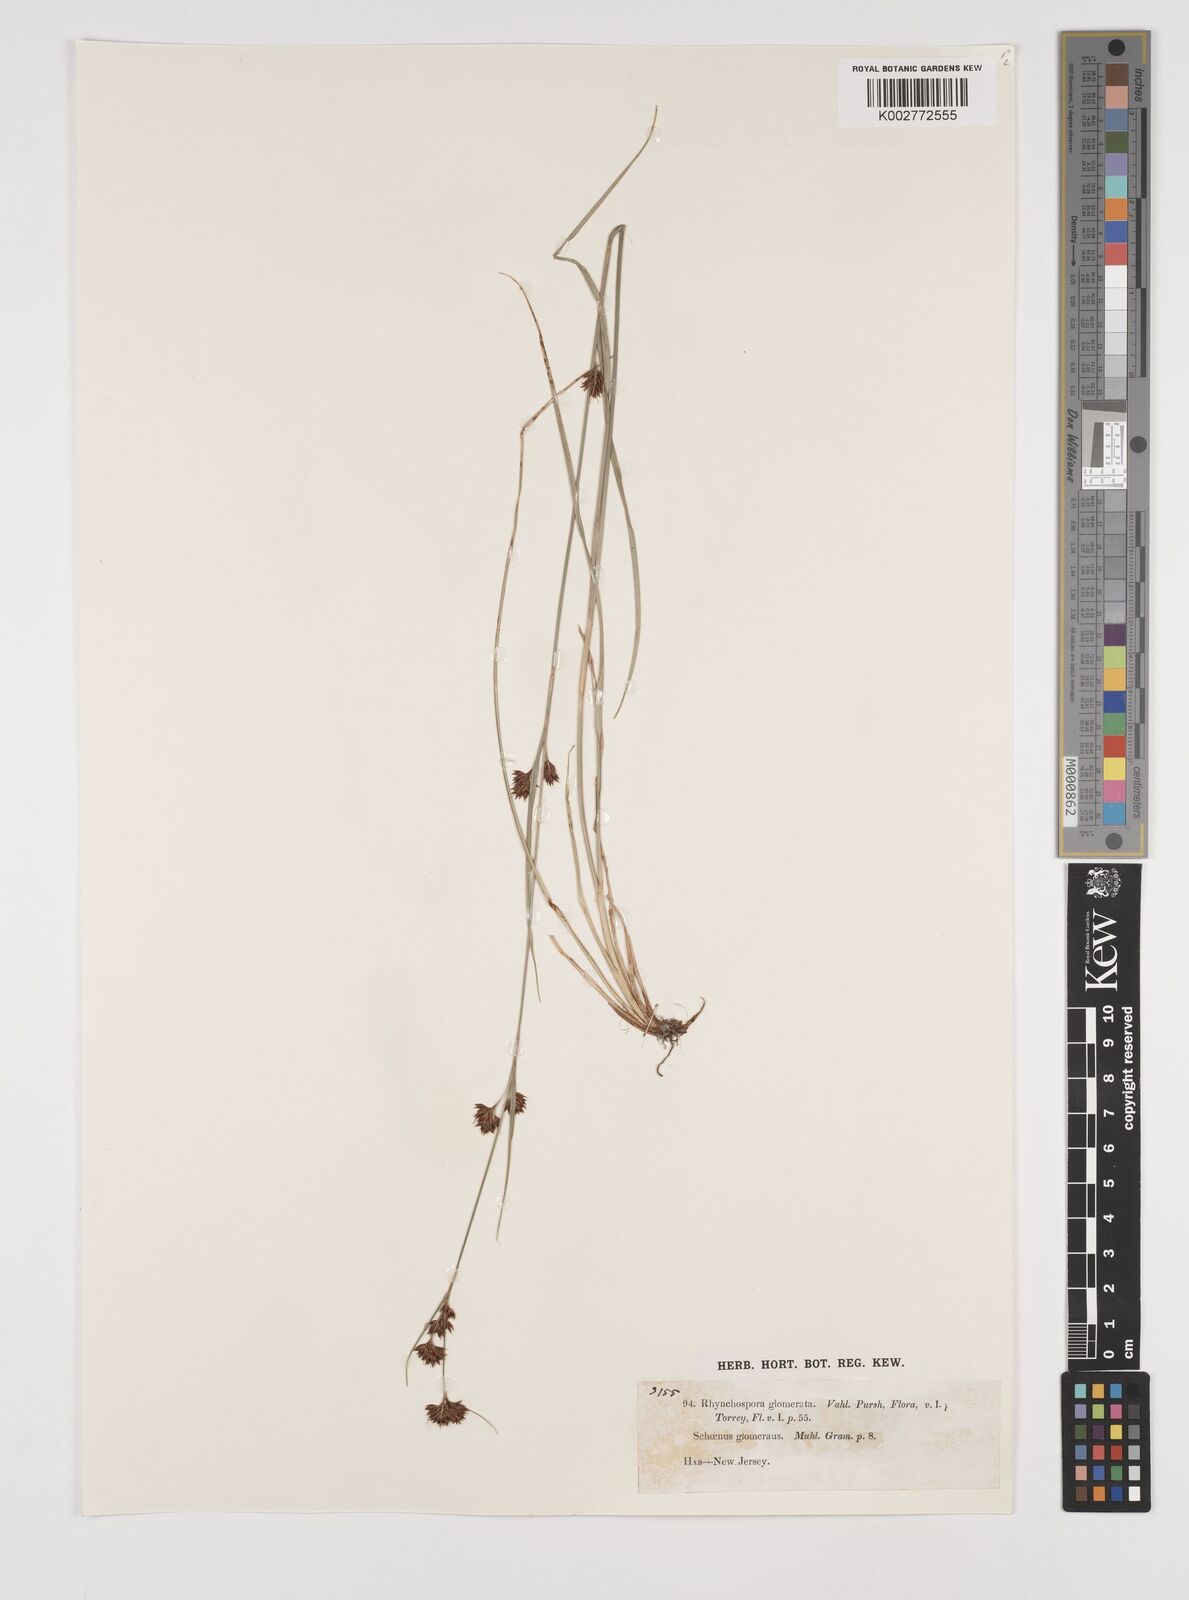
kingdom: Plantae
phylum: Tracheophyta
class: Liliopsida
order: Poales
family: Cyperaceae
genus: Rhynchospora
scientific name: Rhynchospora glomerata
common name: Cluster beak sedge
